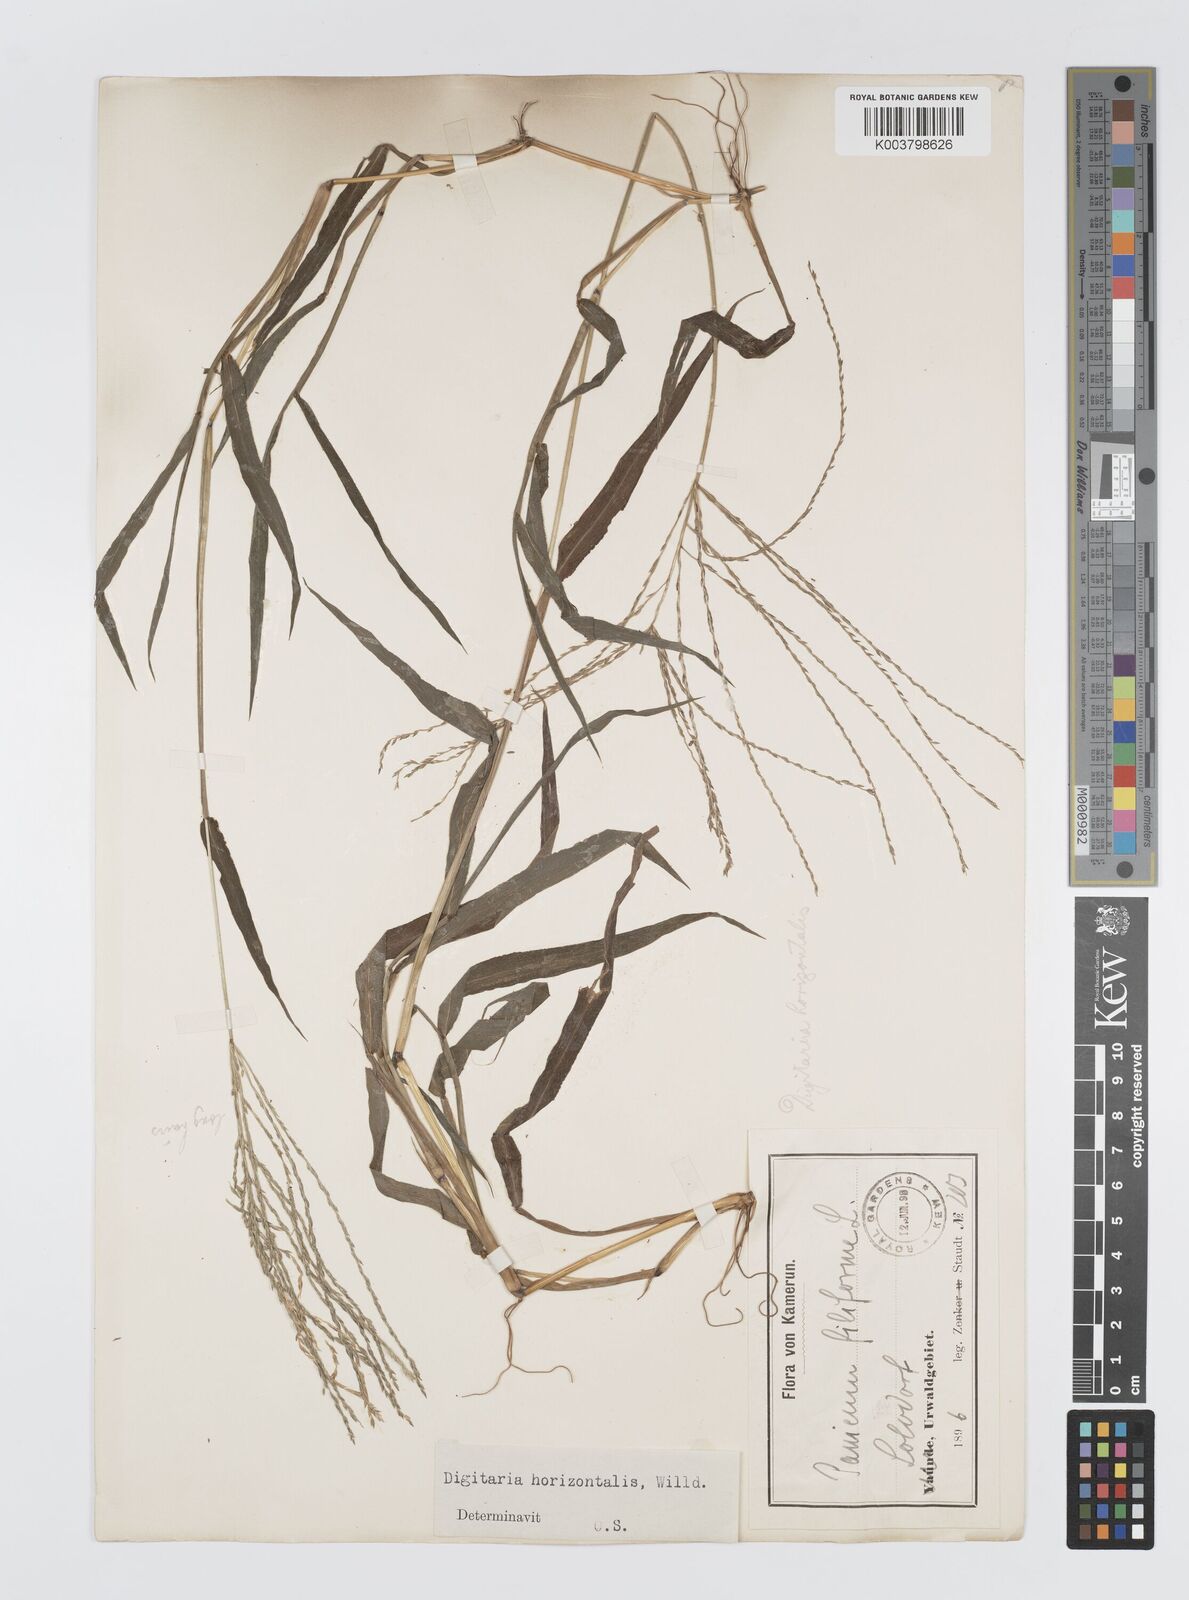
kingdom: Plantae
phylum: Tracheophyta
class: Liliopsida
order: Poales
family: Poaceae
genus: Digitaria
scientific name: Digitaria horizontalis
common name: Jamaican crabgrass
